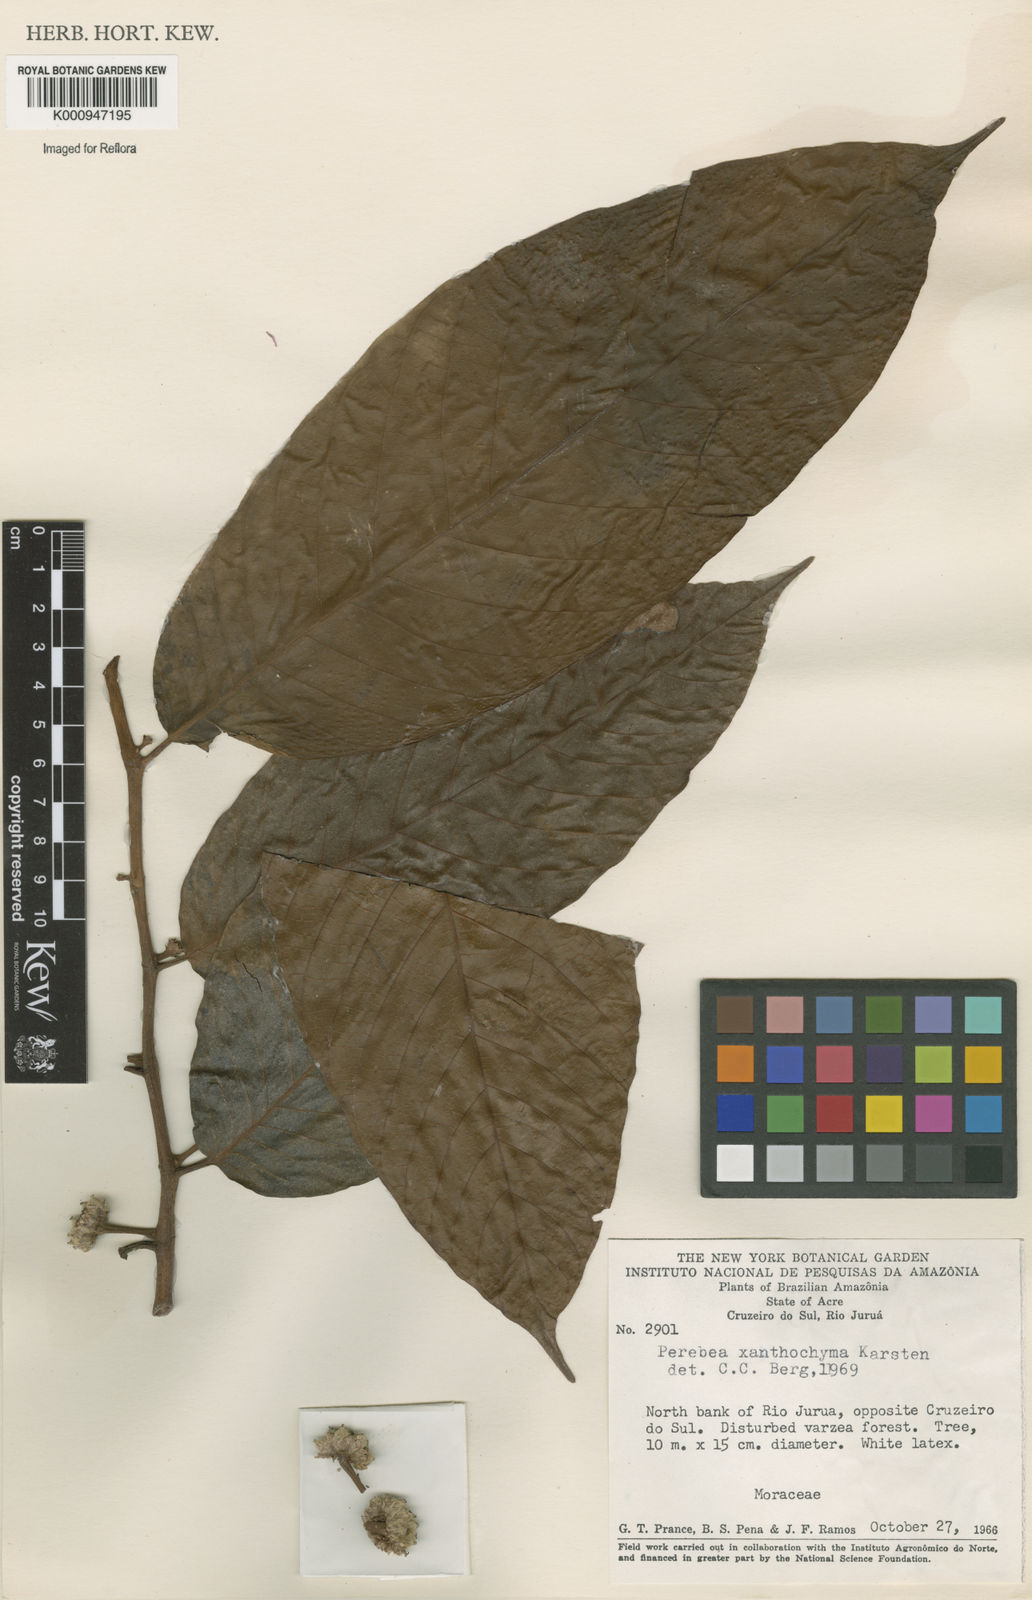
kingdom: Plantae
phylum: Tracheophyta
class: Magnoliopsida
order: Rosales
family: Moraceae
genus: Perebea
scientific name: Perebea xanthochyma
